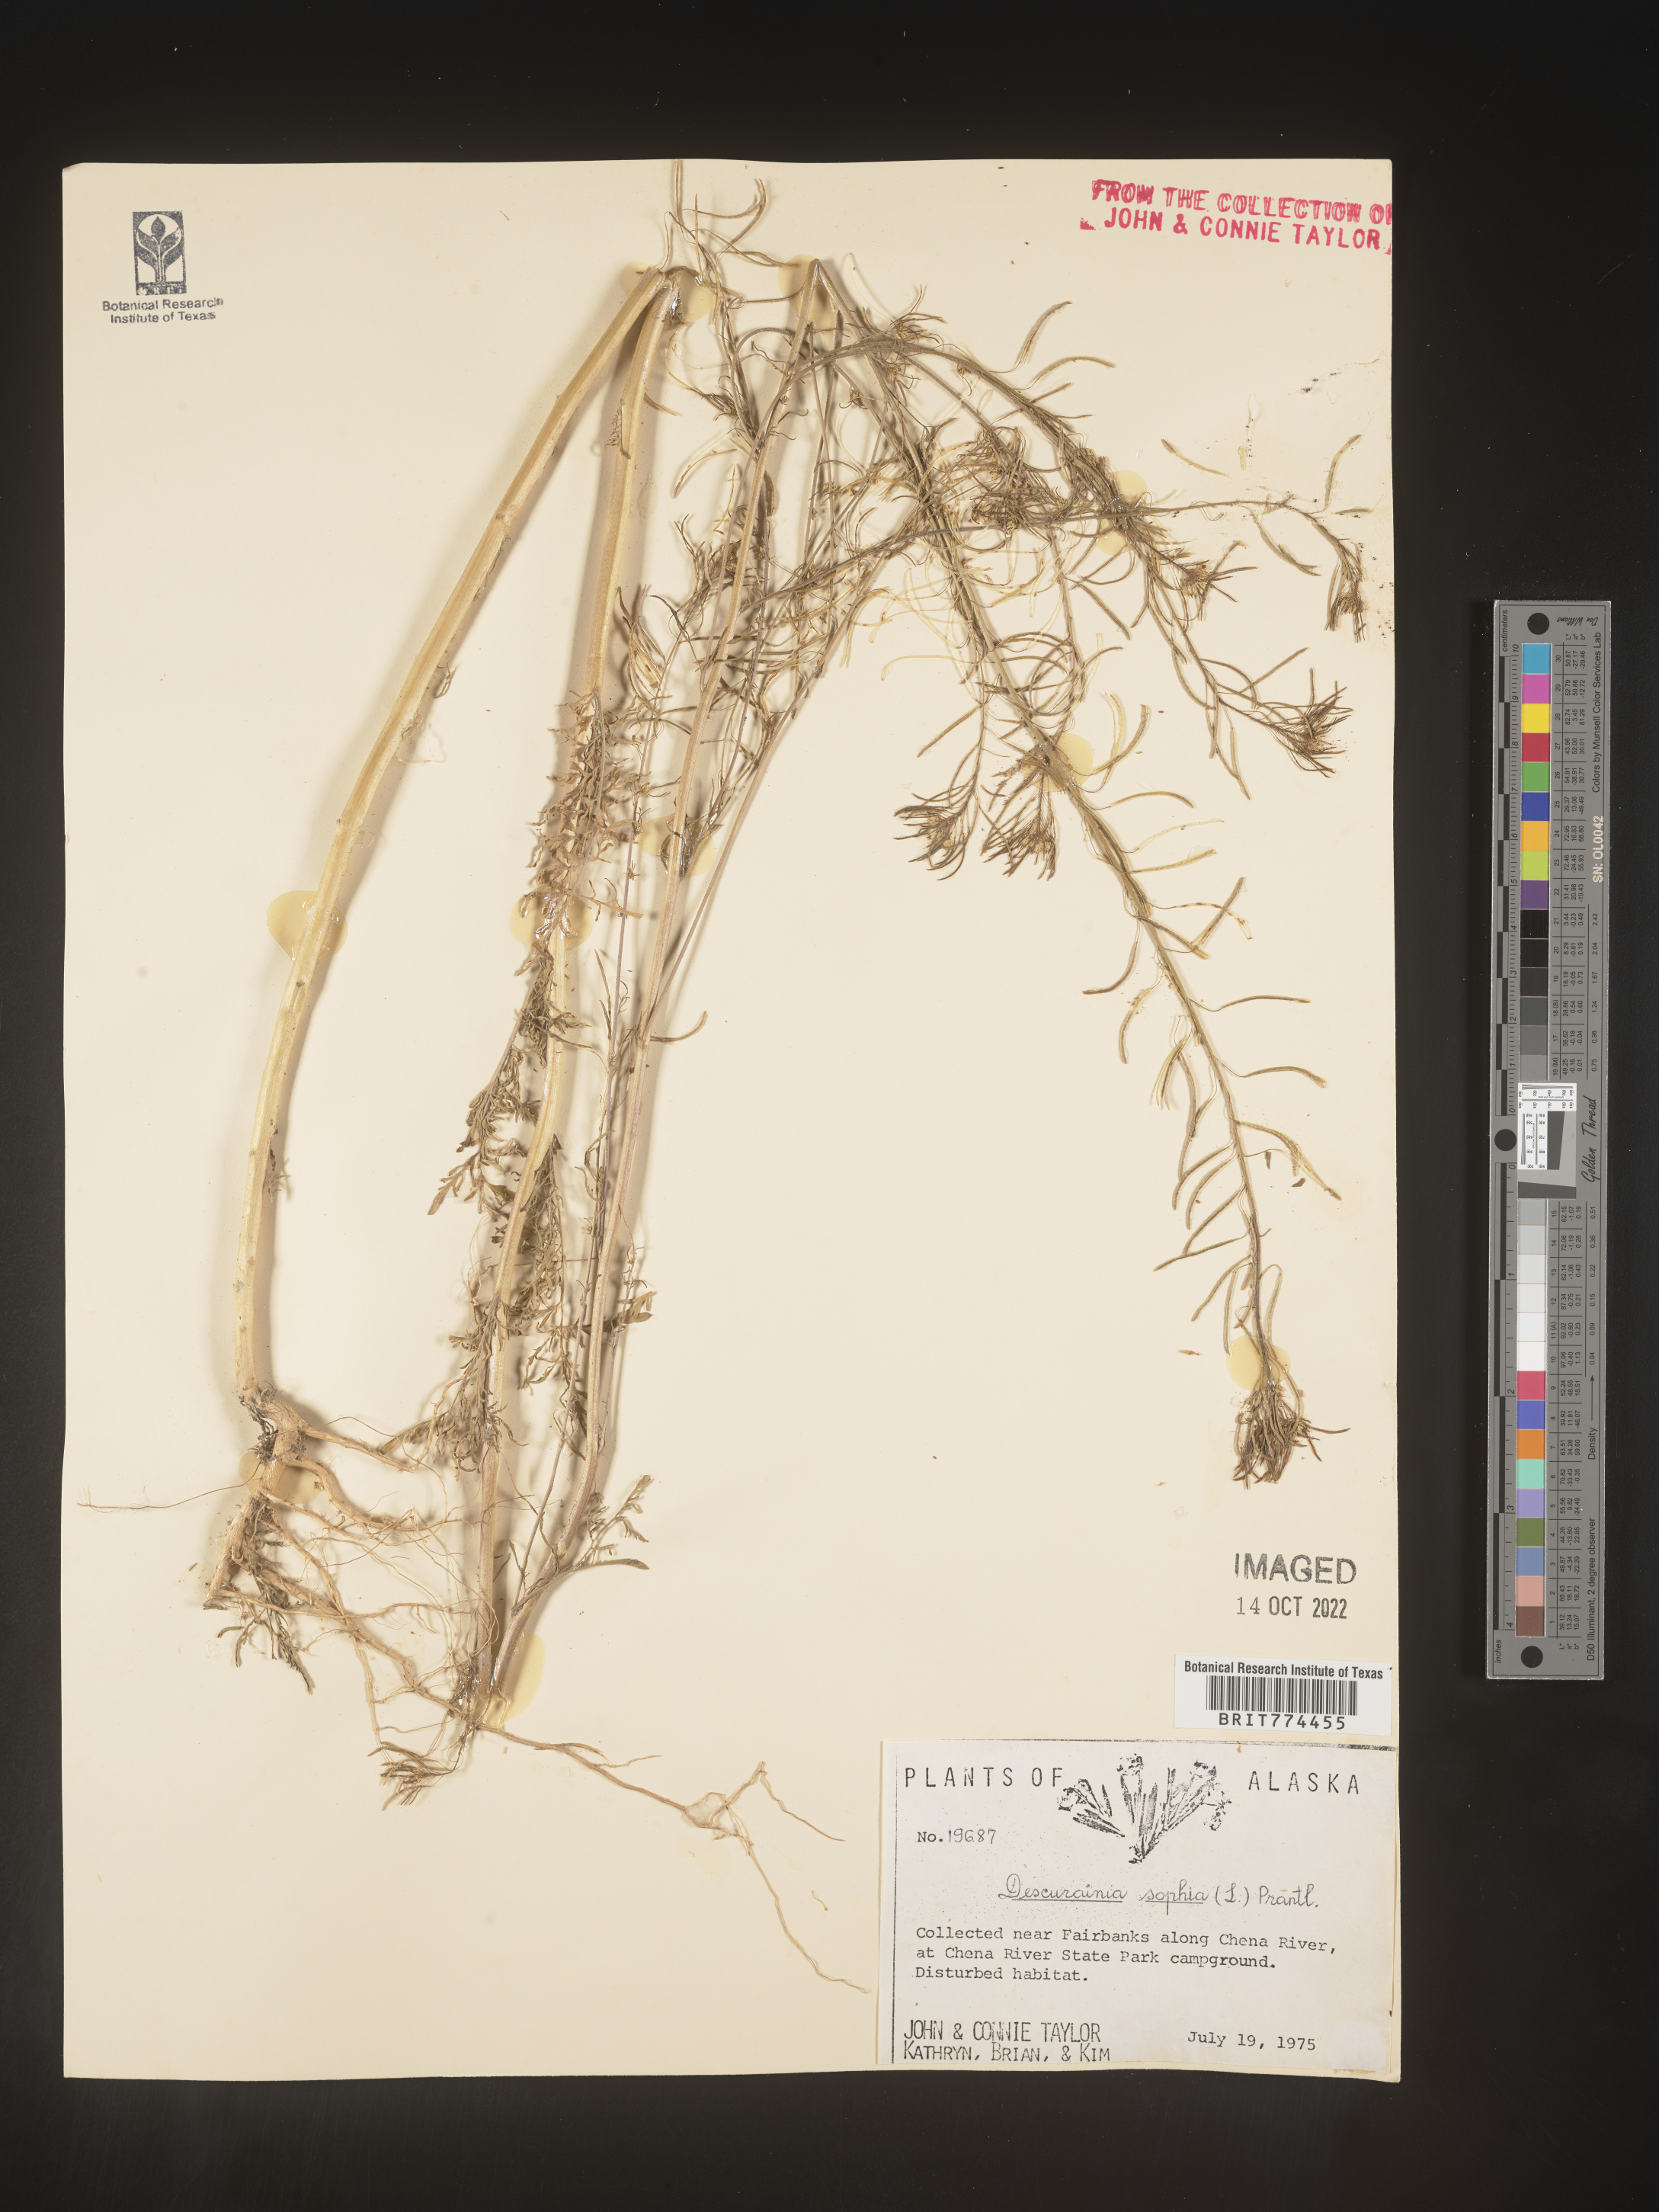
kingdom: Plantae
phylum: Tracheophyta
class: Magnoliopsida
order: Brassicales
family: Brassicaceae
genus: Descurainia
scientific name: Descurainia sophia
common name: Flixweed
